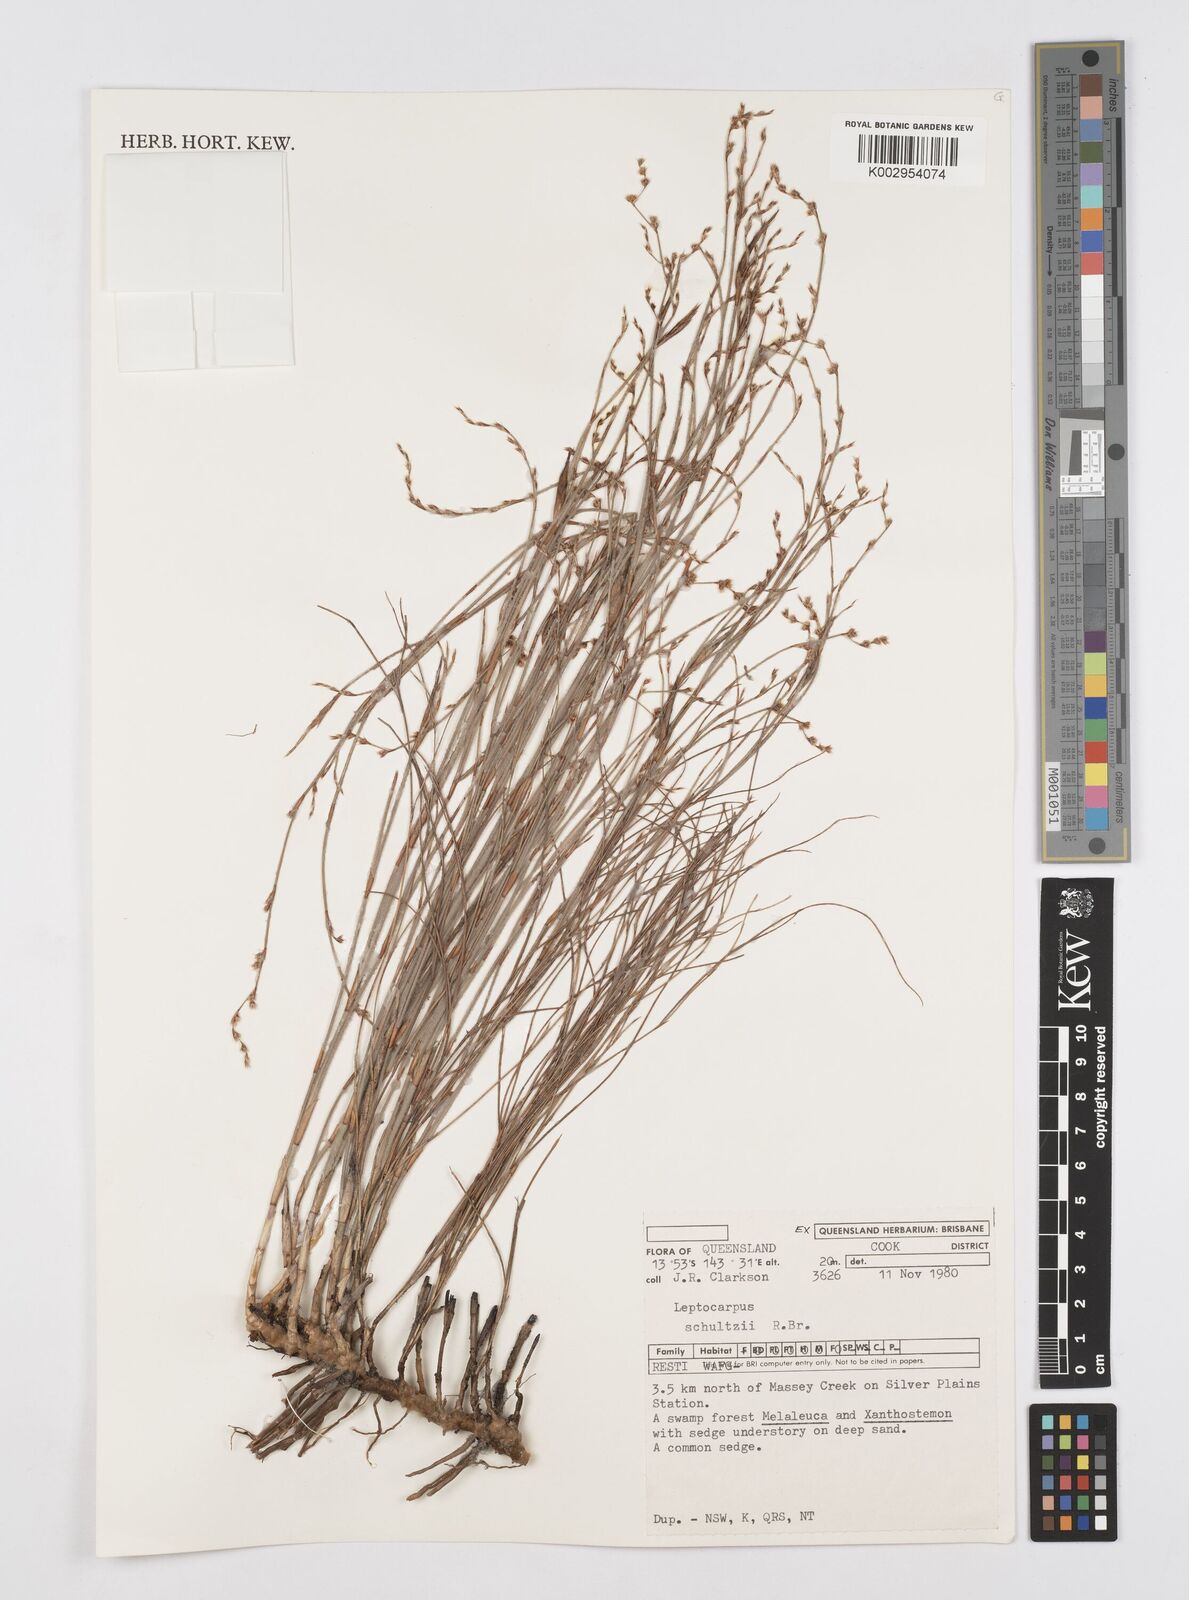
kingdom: Plantae
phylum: Tracheophyta
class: Liliopsida
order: Poales
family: Restionaceae
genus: Dapsilanthus
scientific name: Dapsilanthus spathaceus
